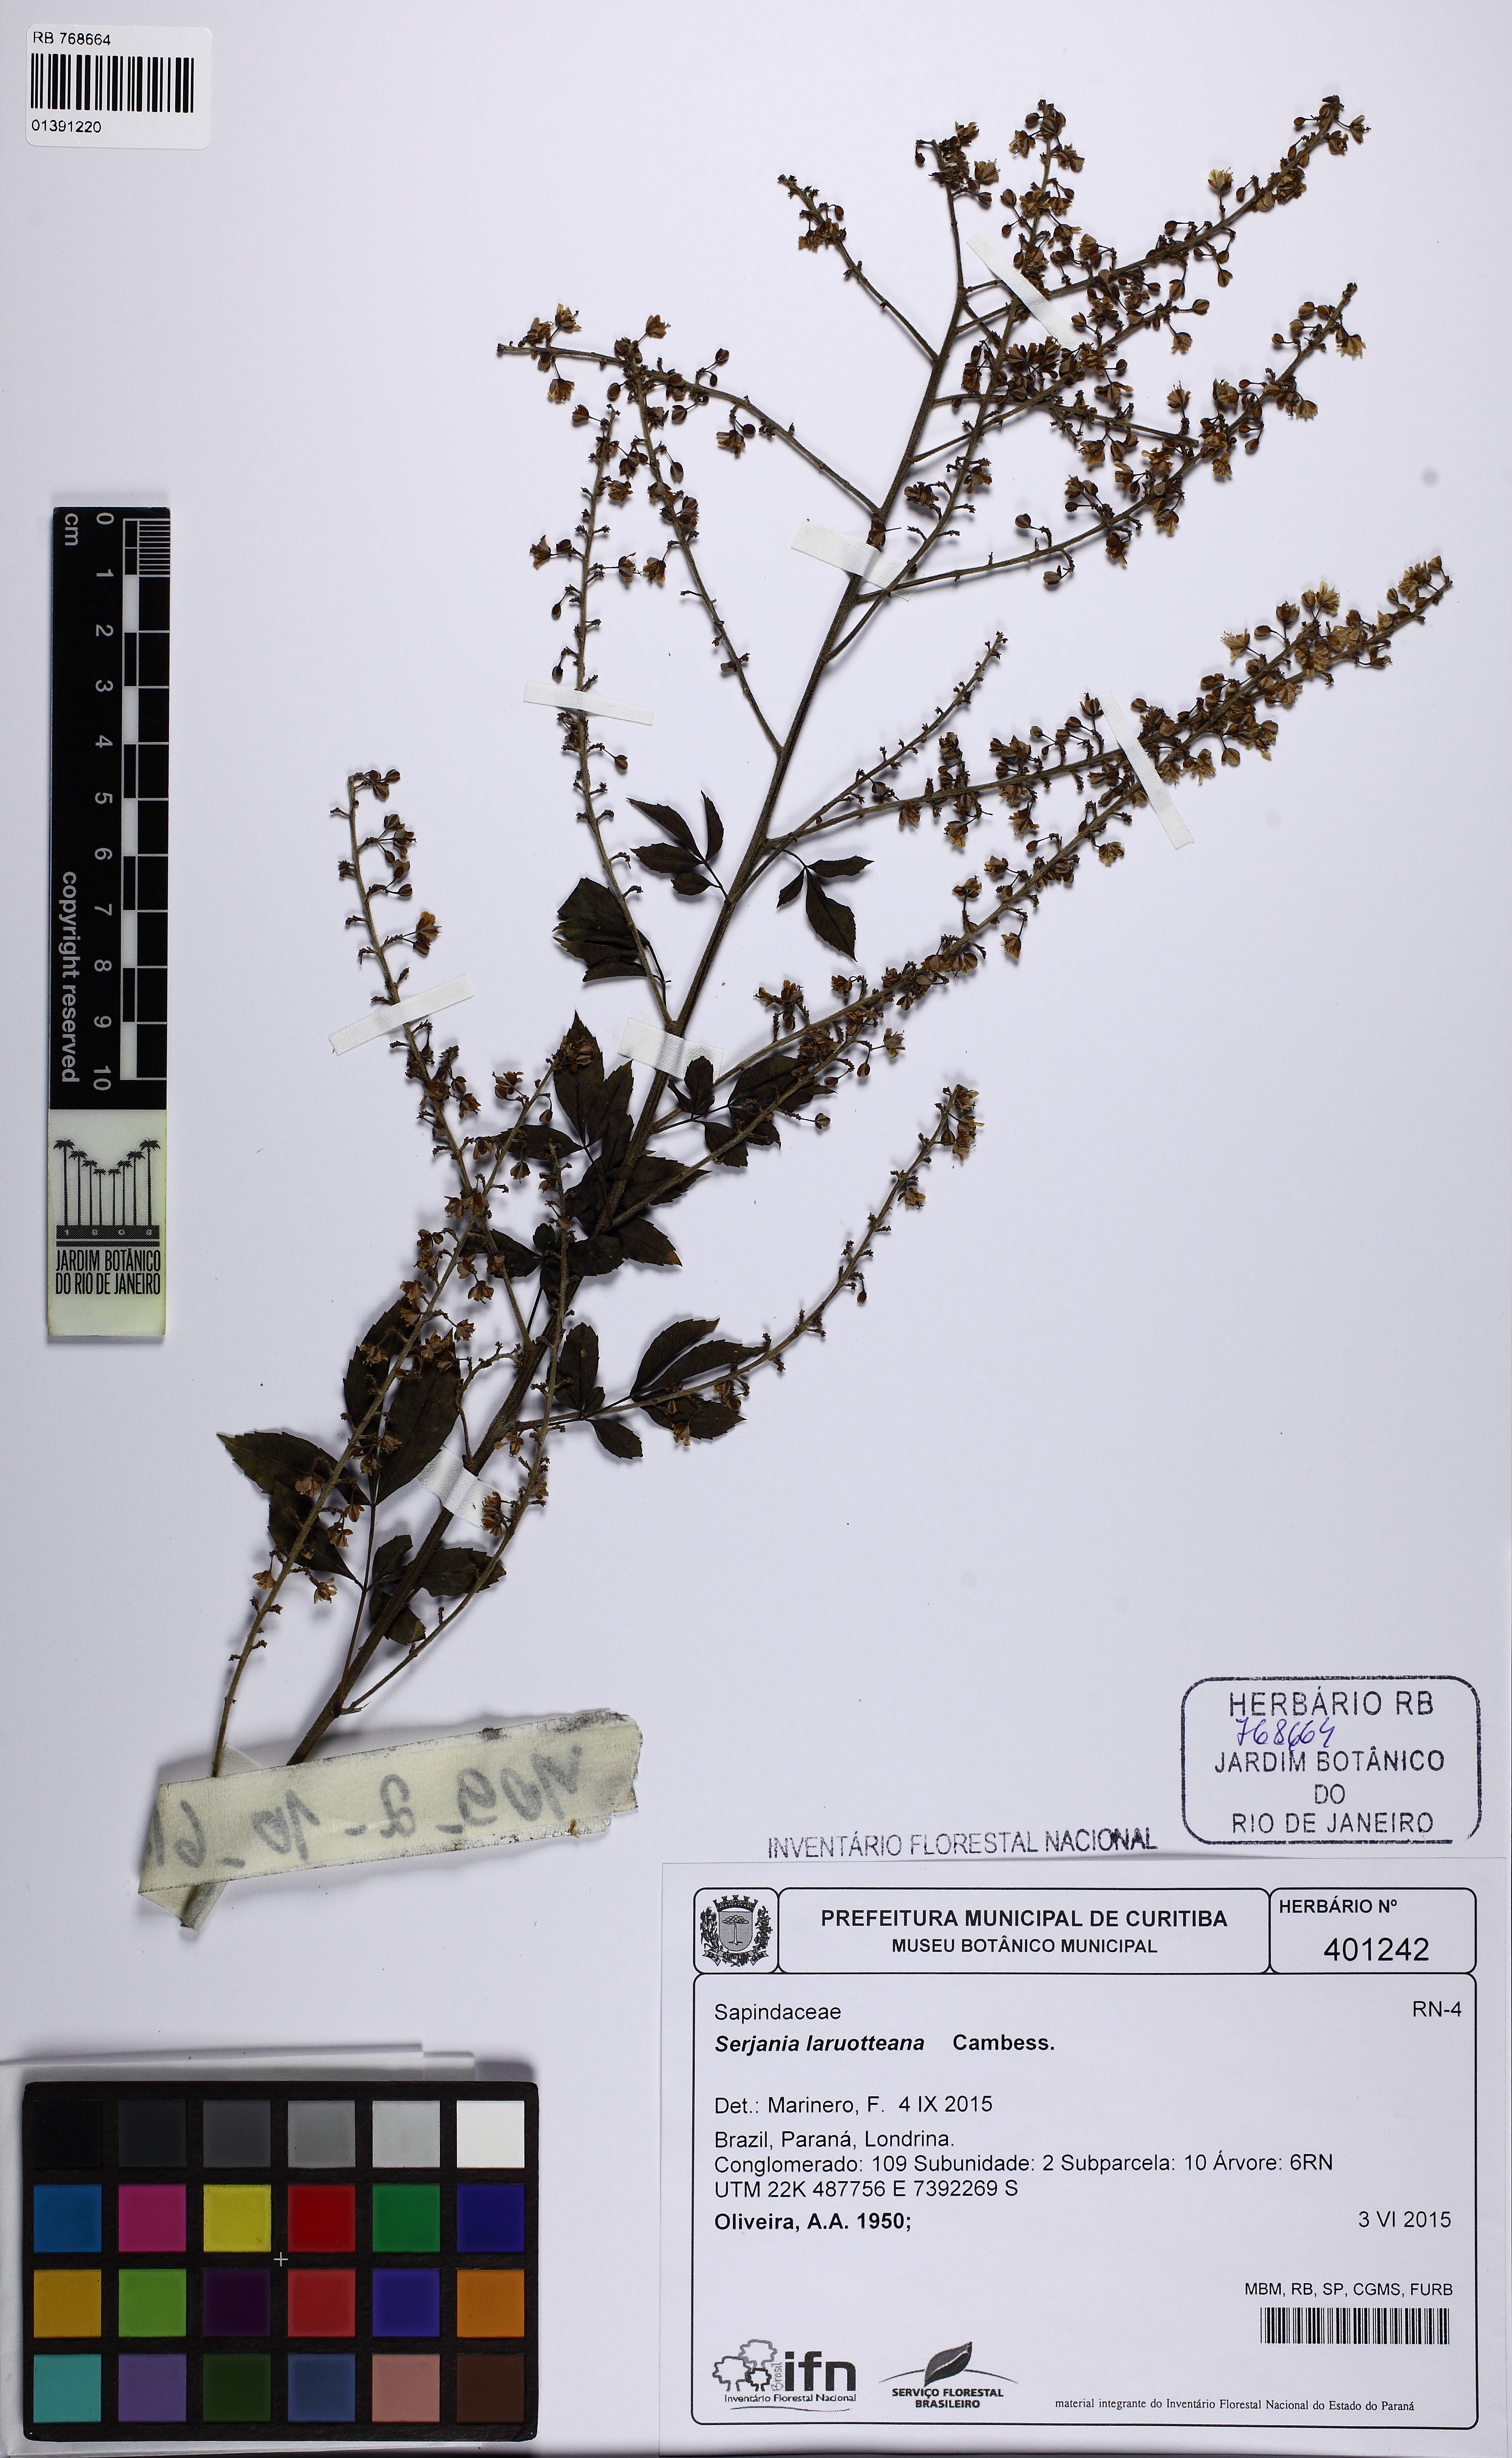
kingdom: Plantae
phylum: Tracheophyta
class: Magnoliopsida
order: Sapindales
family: Sapindaceae
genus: Serjania
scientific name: Serjania laruotteana
